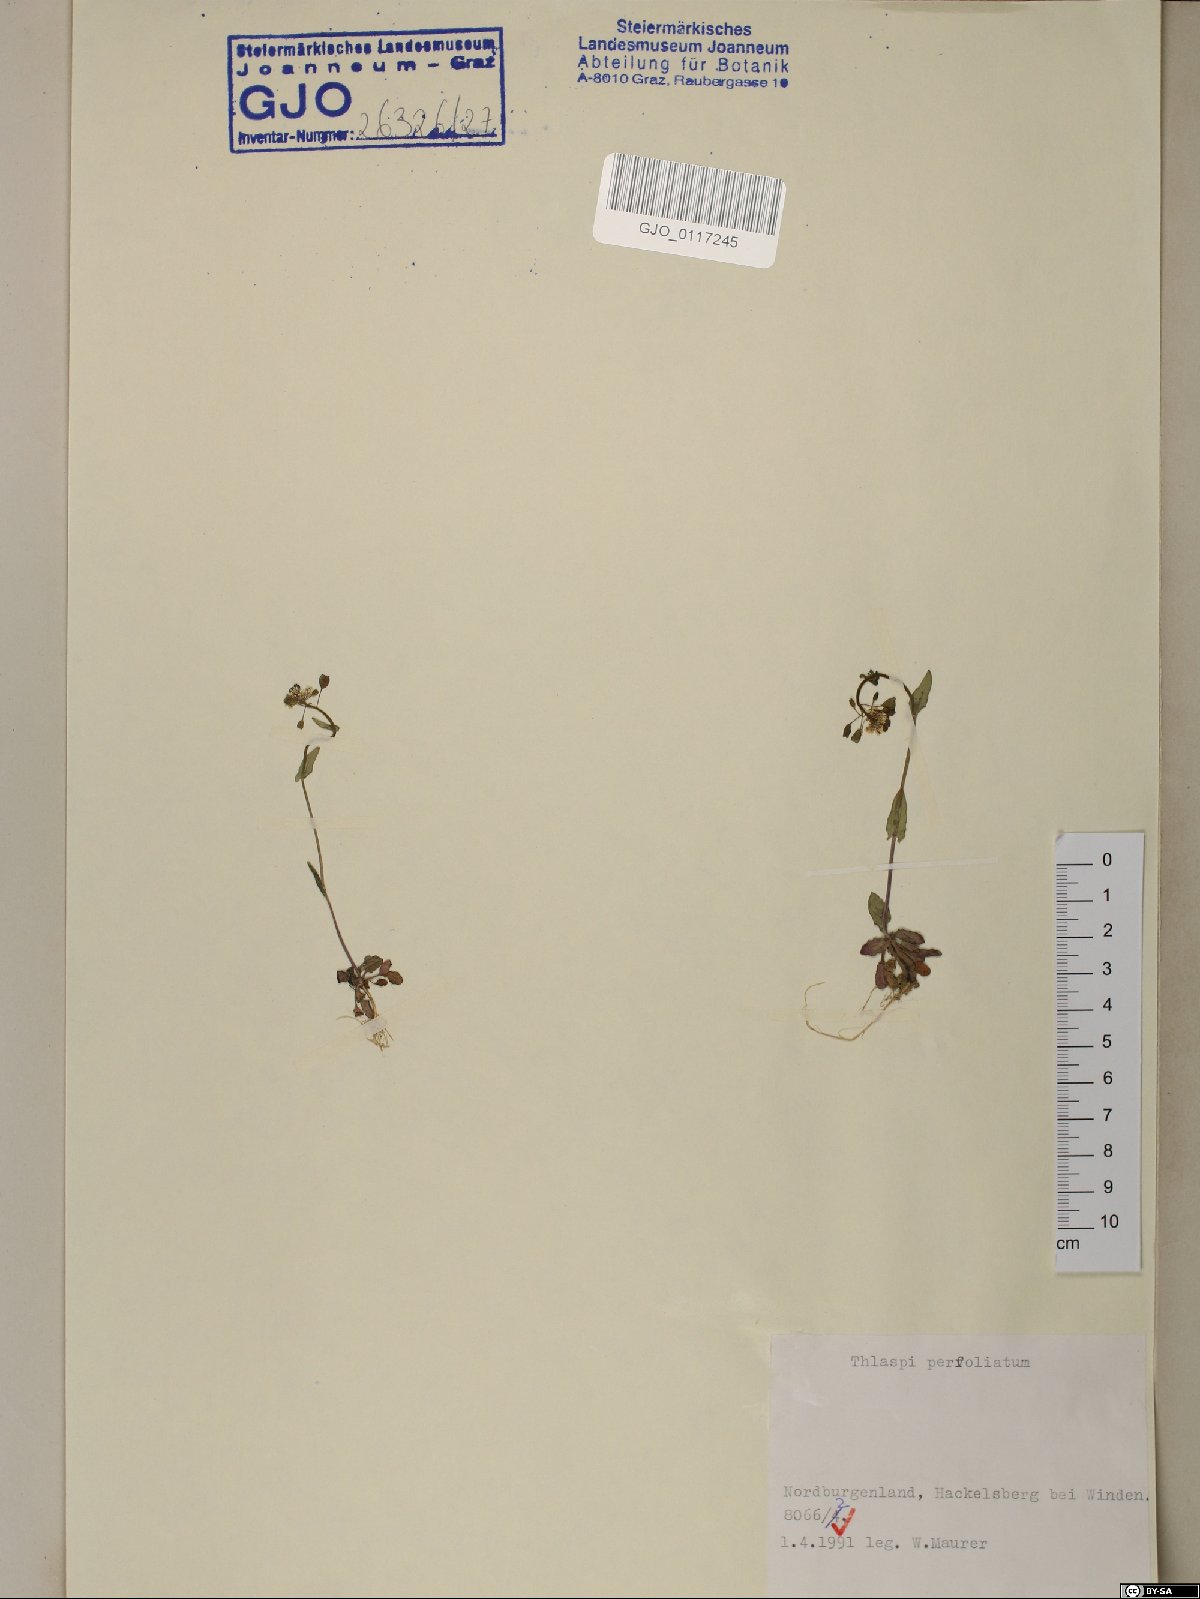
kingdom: Plantae
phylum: Tracheophyta
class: Magnoliopsida
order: Brassicales
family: Brassicaceae
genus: Noccaea
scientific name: Noccaea perfoliata
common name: Perfoliate pennycress
